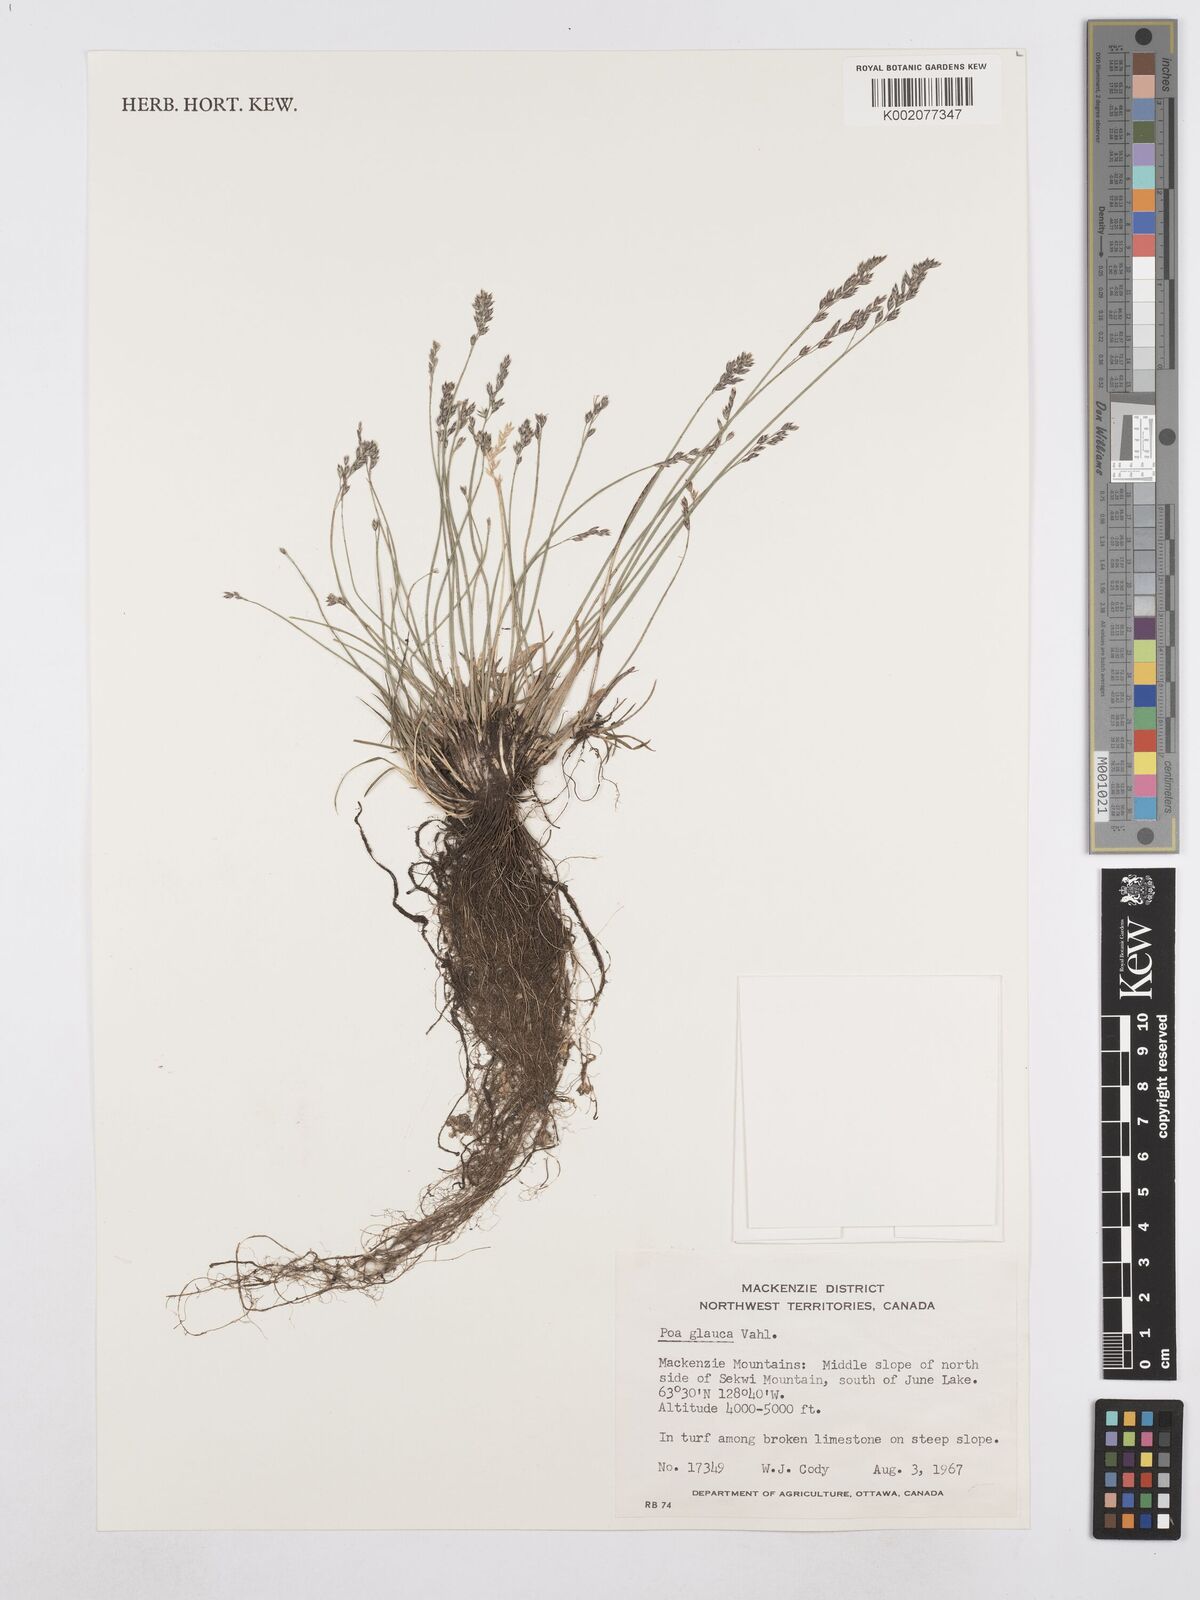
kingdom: Plantae
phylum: Tracheophyta
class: Liliopsida
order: Poales
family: Poaceae
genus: Poa
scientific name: Poa glauca
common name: Glaucous bluegrass
